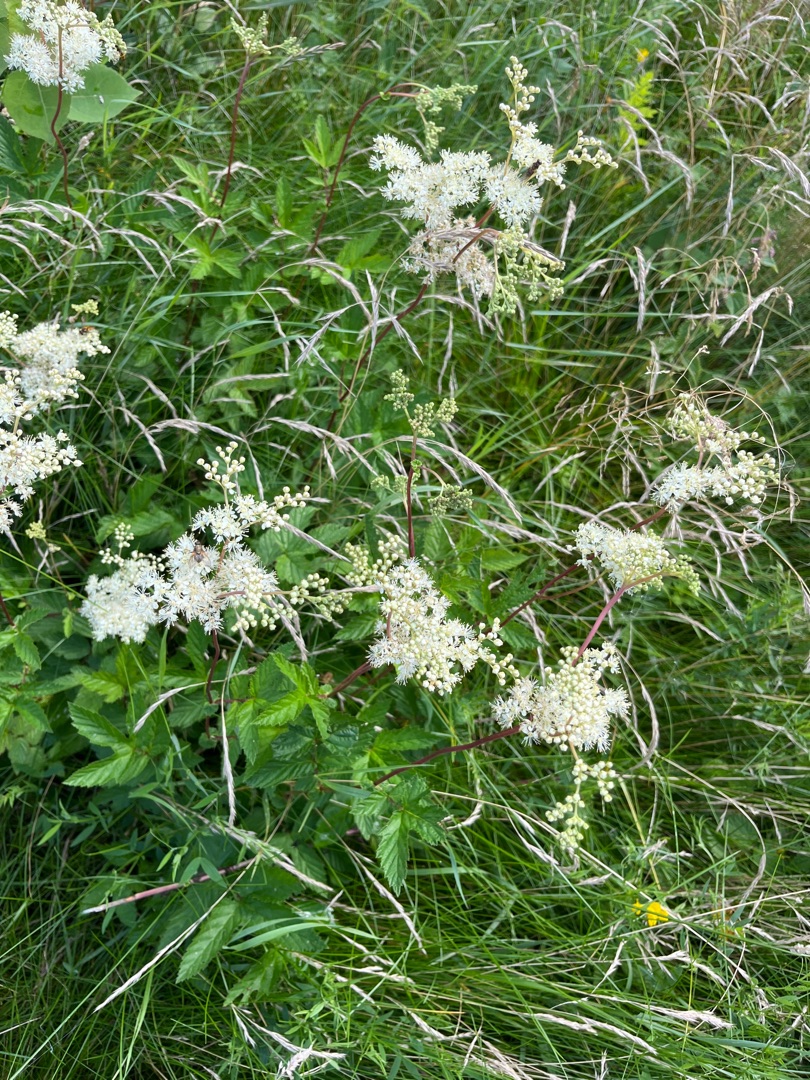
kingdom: Plantae
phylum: Tracheophyta
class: Magnoliopsida
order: Rosales
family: Rosaceae
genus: Filipendula
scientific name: Filipendula ulmaria
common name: Almindelig mjødurt
